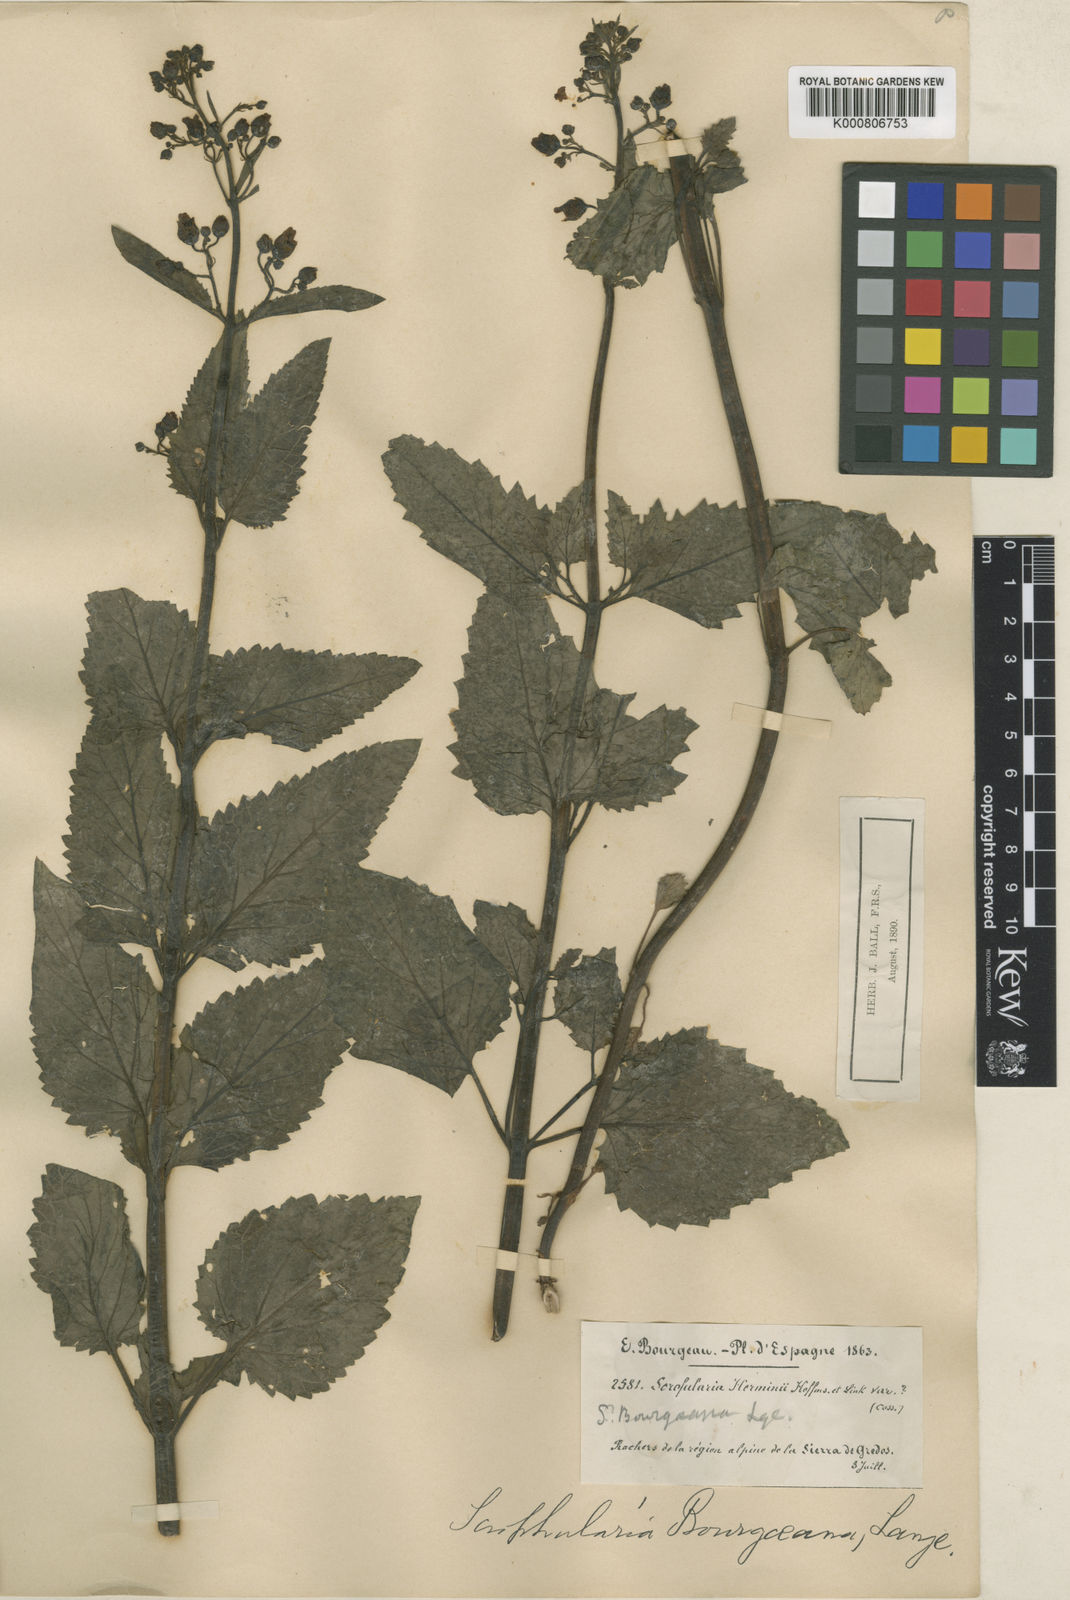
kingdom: Plantae
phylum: Tracheophyta
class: Magnoliopsida
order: Lamiales
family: Scrophulariaceae
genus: Scrophularia
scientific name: Scrophularia herminii
